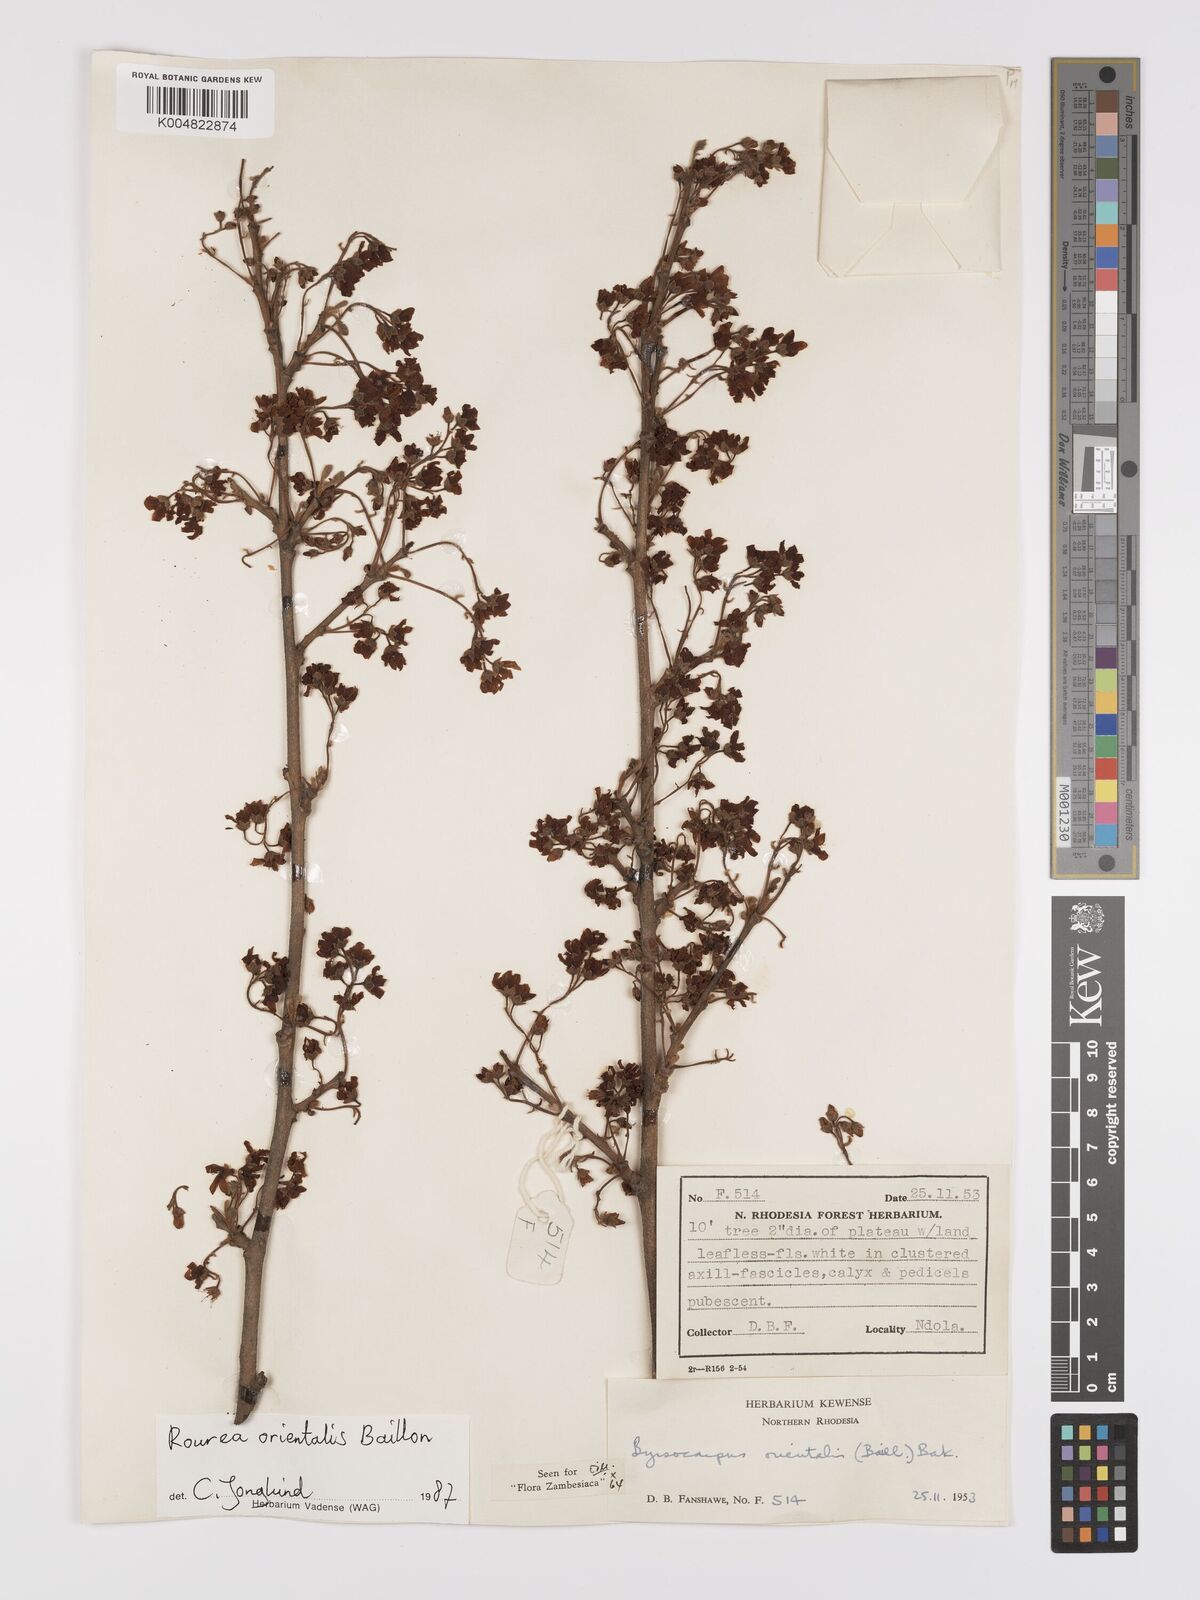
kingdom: Plantae
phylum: Tracheophyta
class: Magnoliopsida
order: Oxalidales
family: Connaraceae
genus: Rourea
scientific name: Rourea orientalis
